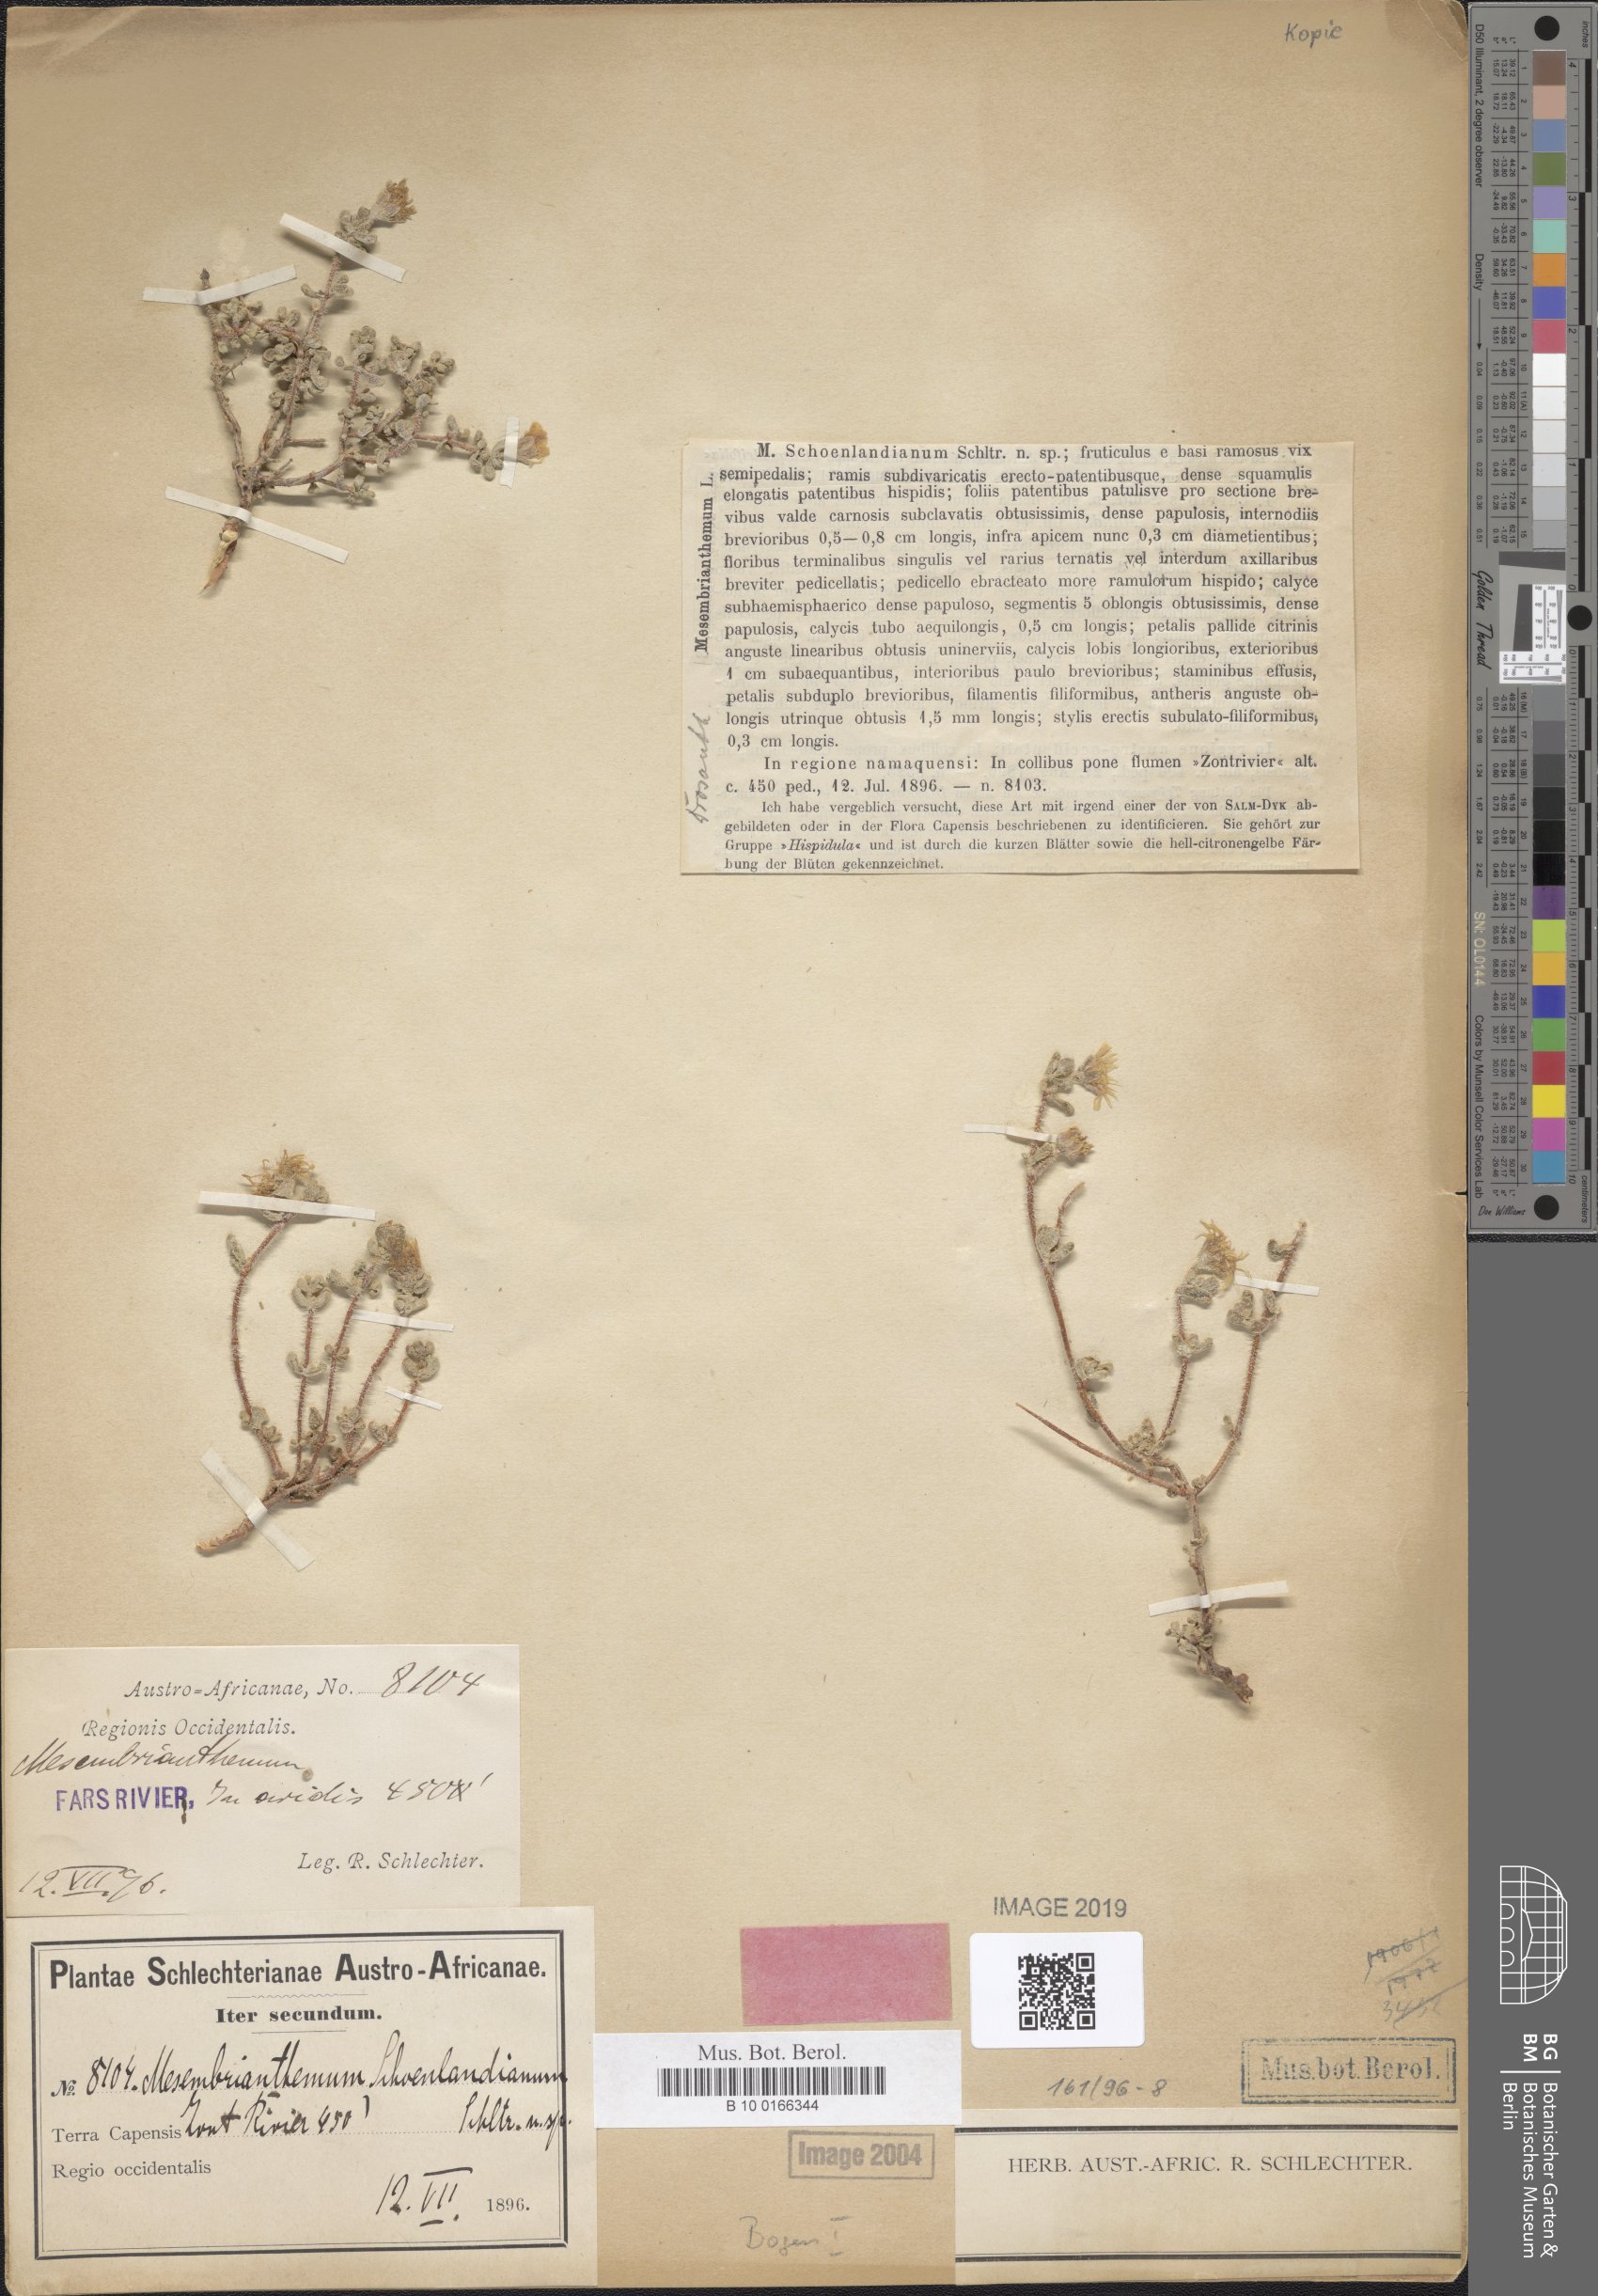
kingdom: Plantae
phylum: Tracheophyta
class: Magnoliopsida
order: Caryophyllales
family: Aizoaceae
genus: Drosanthemum
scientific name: Drosanthemum schoenlandianum
